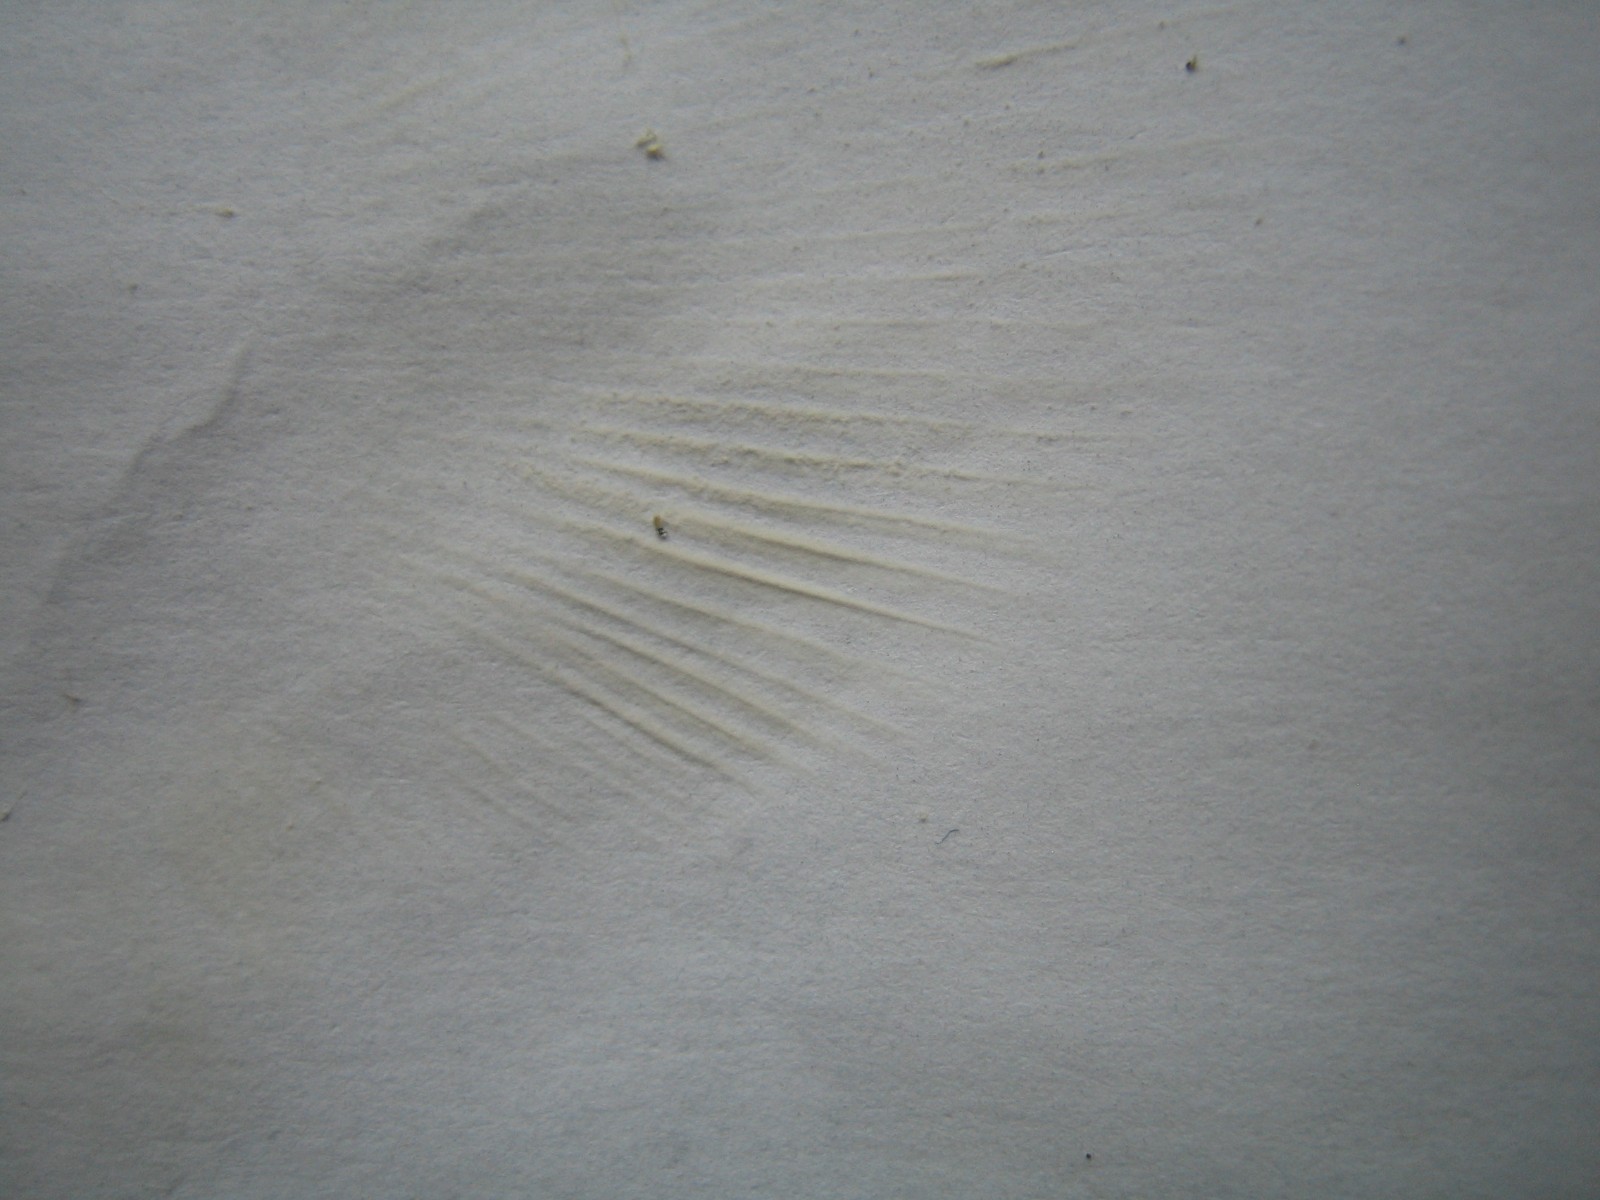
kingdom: Fungi
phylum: Basidiomycota
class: Agaricomycetes
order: Russulales
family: Russulaceae
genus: Russula
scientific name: Russula aurora
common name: rosa skørhat
